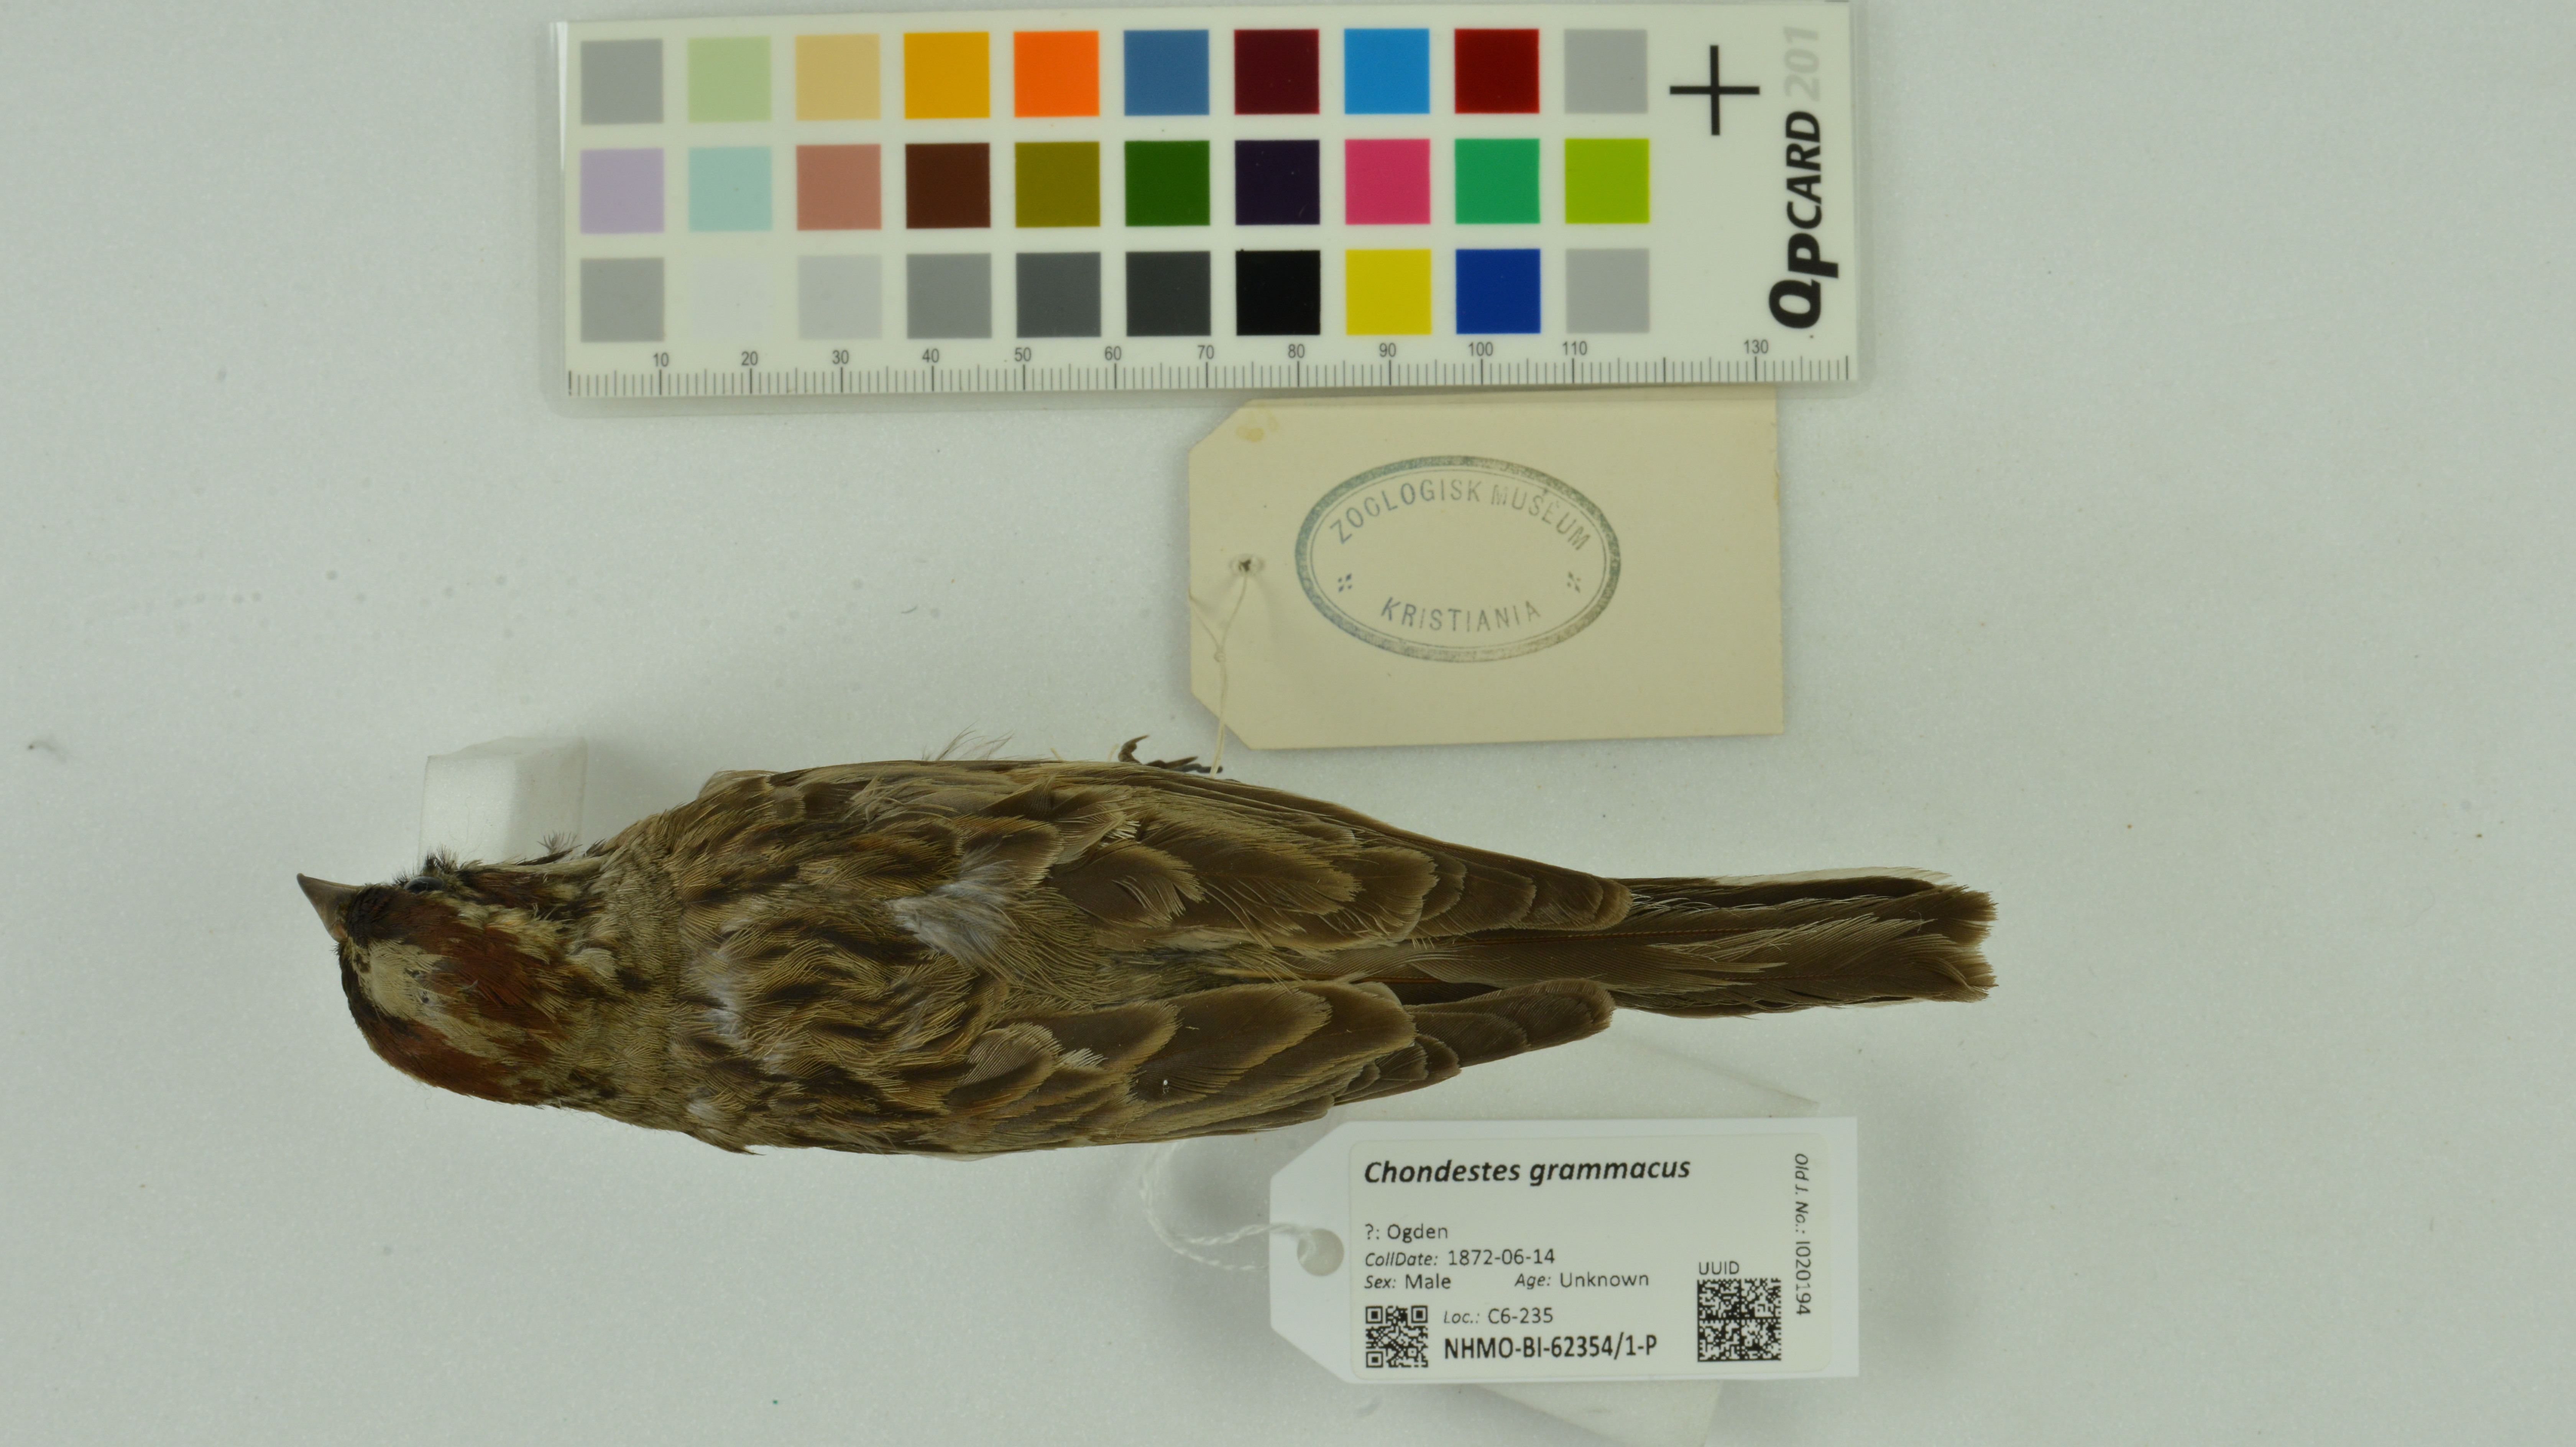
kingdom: Animalia
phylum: Chordata
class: Aves
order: Passeriformes
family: Passerellidae
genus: Chondestes
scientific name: Chondestes grammacus
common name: Lark sparrow
